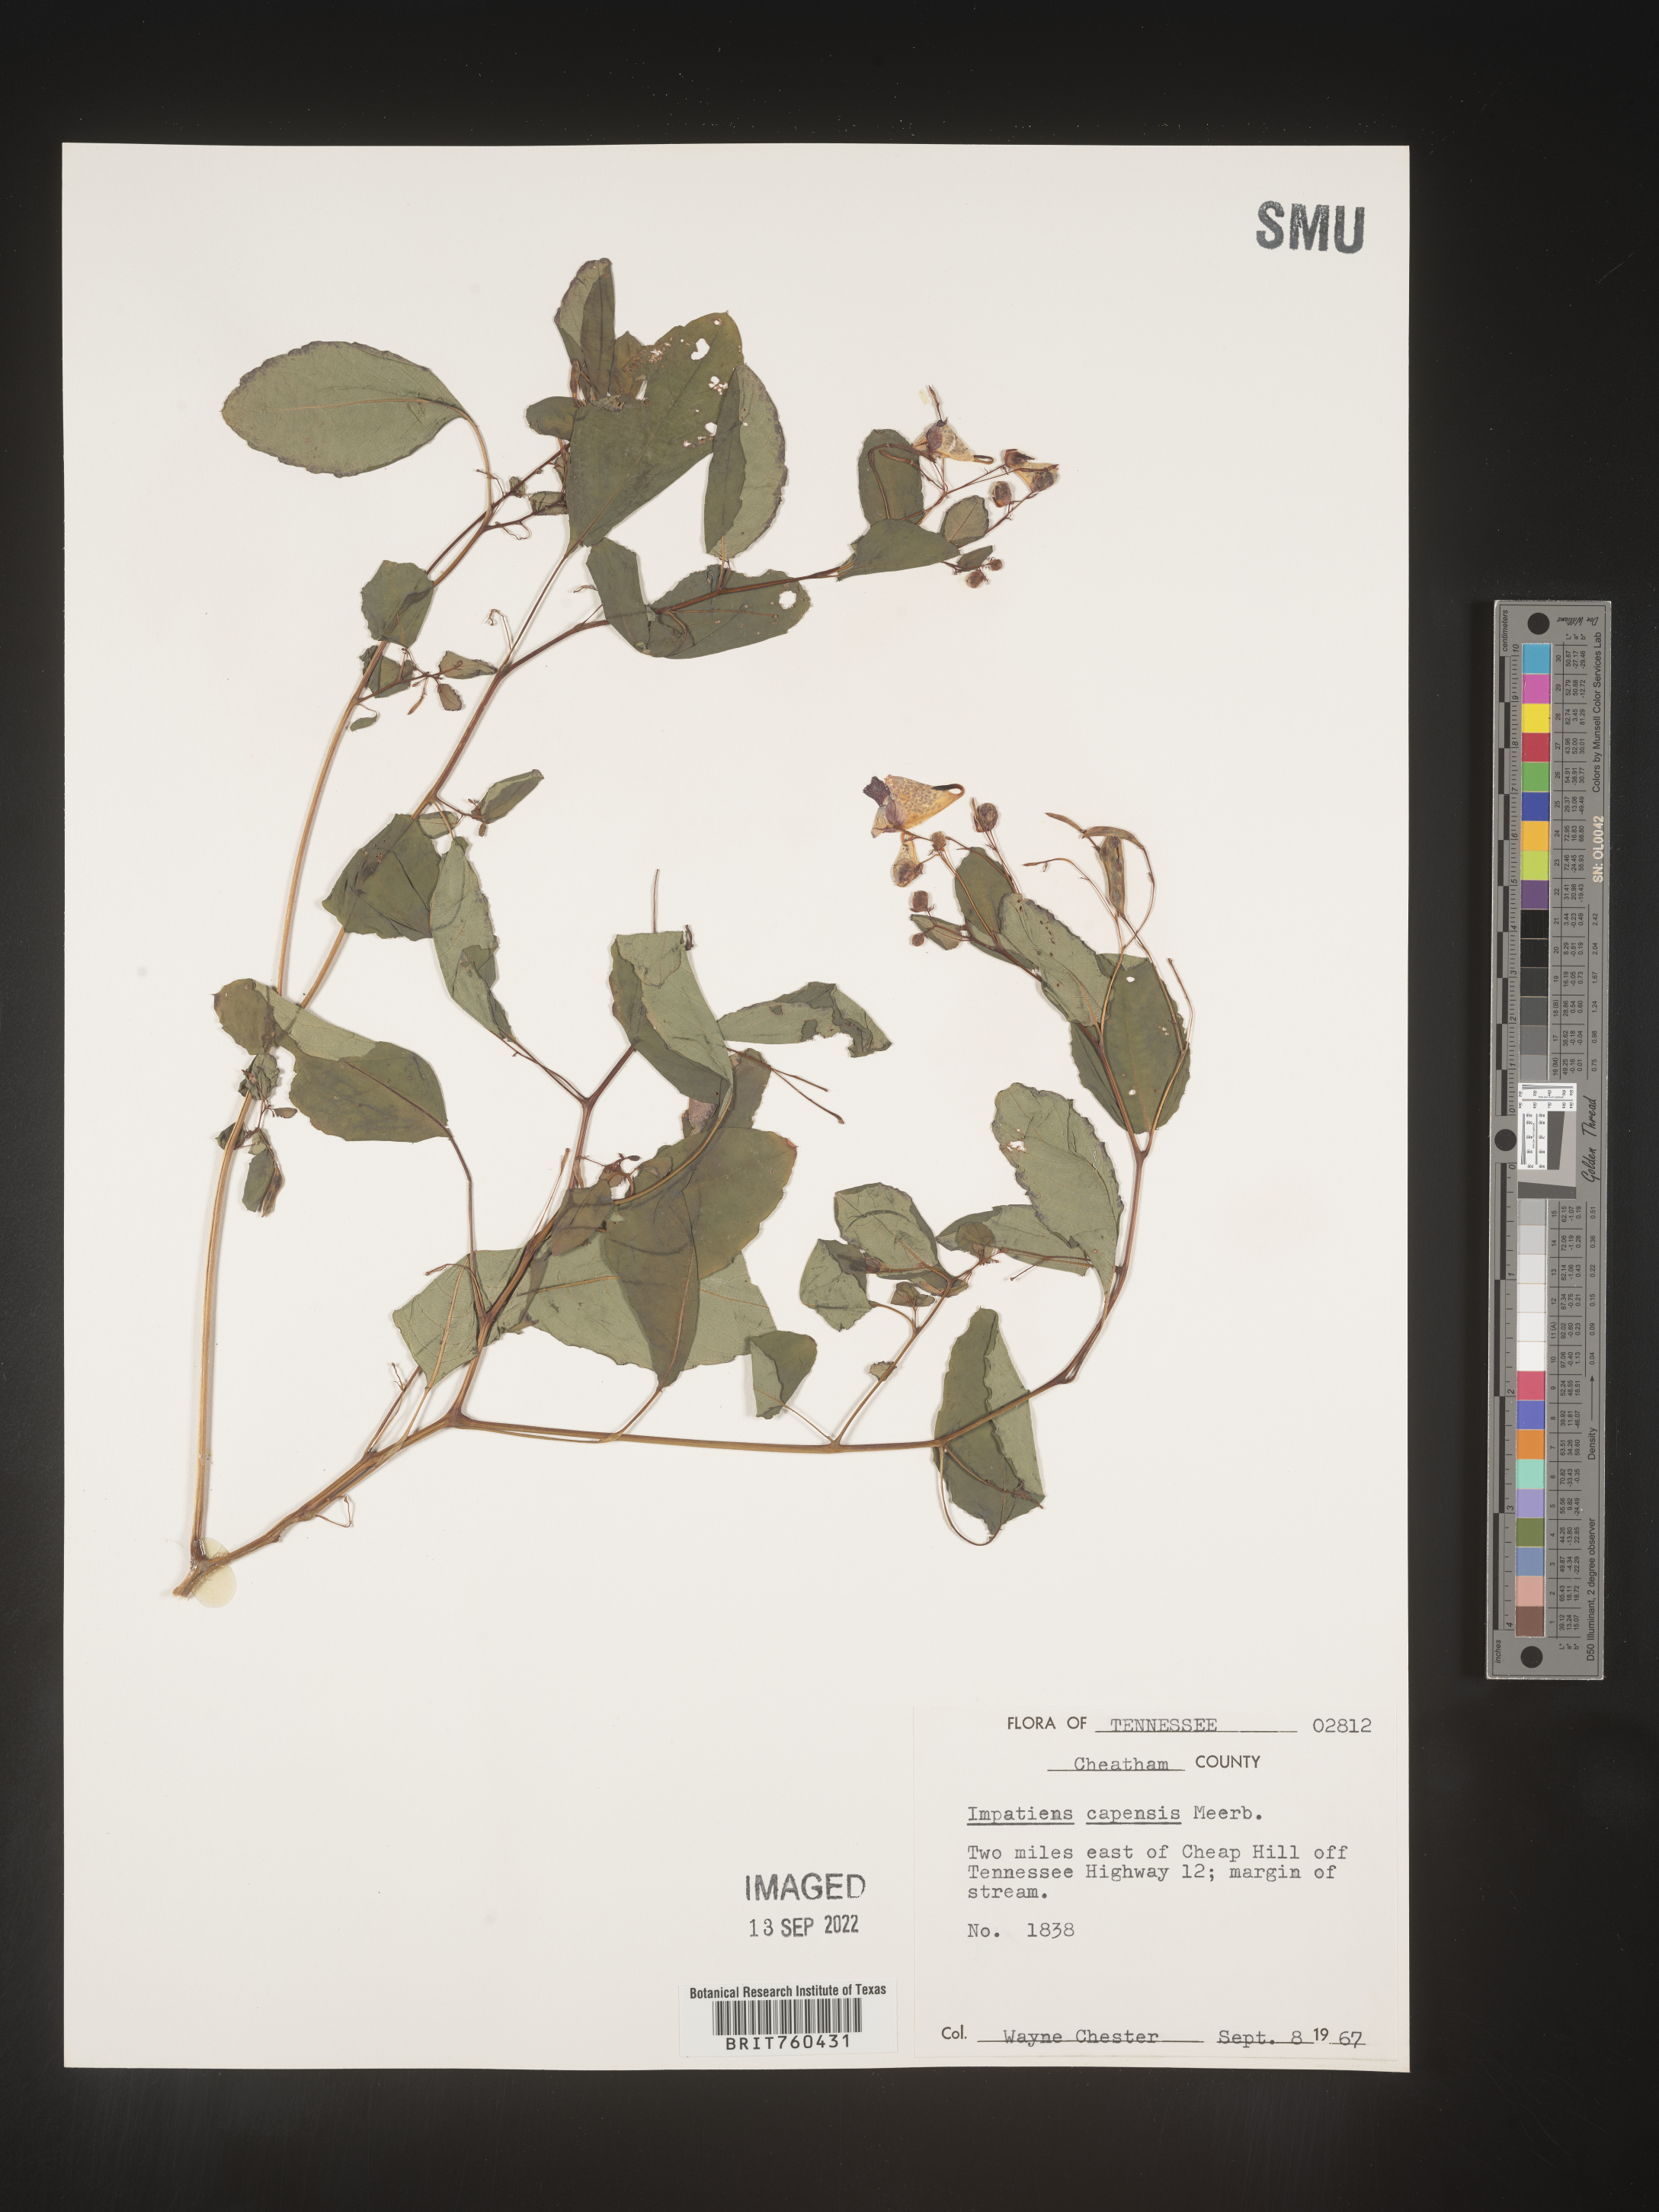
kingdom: Plantae
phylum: Tracheophyta
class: Magnoliopsida
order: Ericales
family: Balsaminaceae
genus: Impatiens
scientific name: Impatiens capensis
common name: Orange balsam
